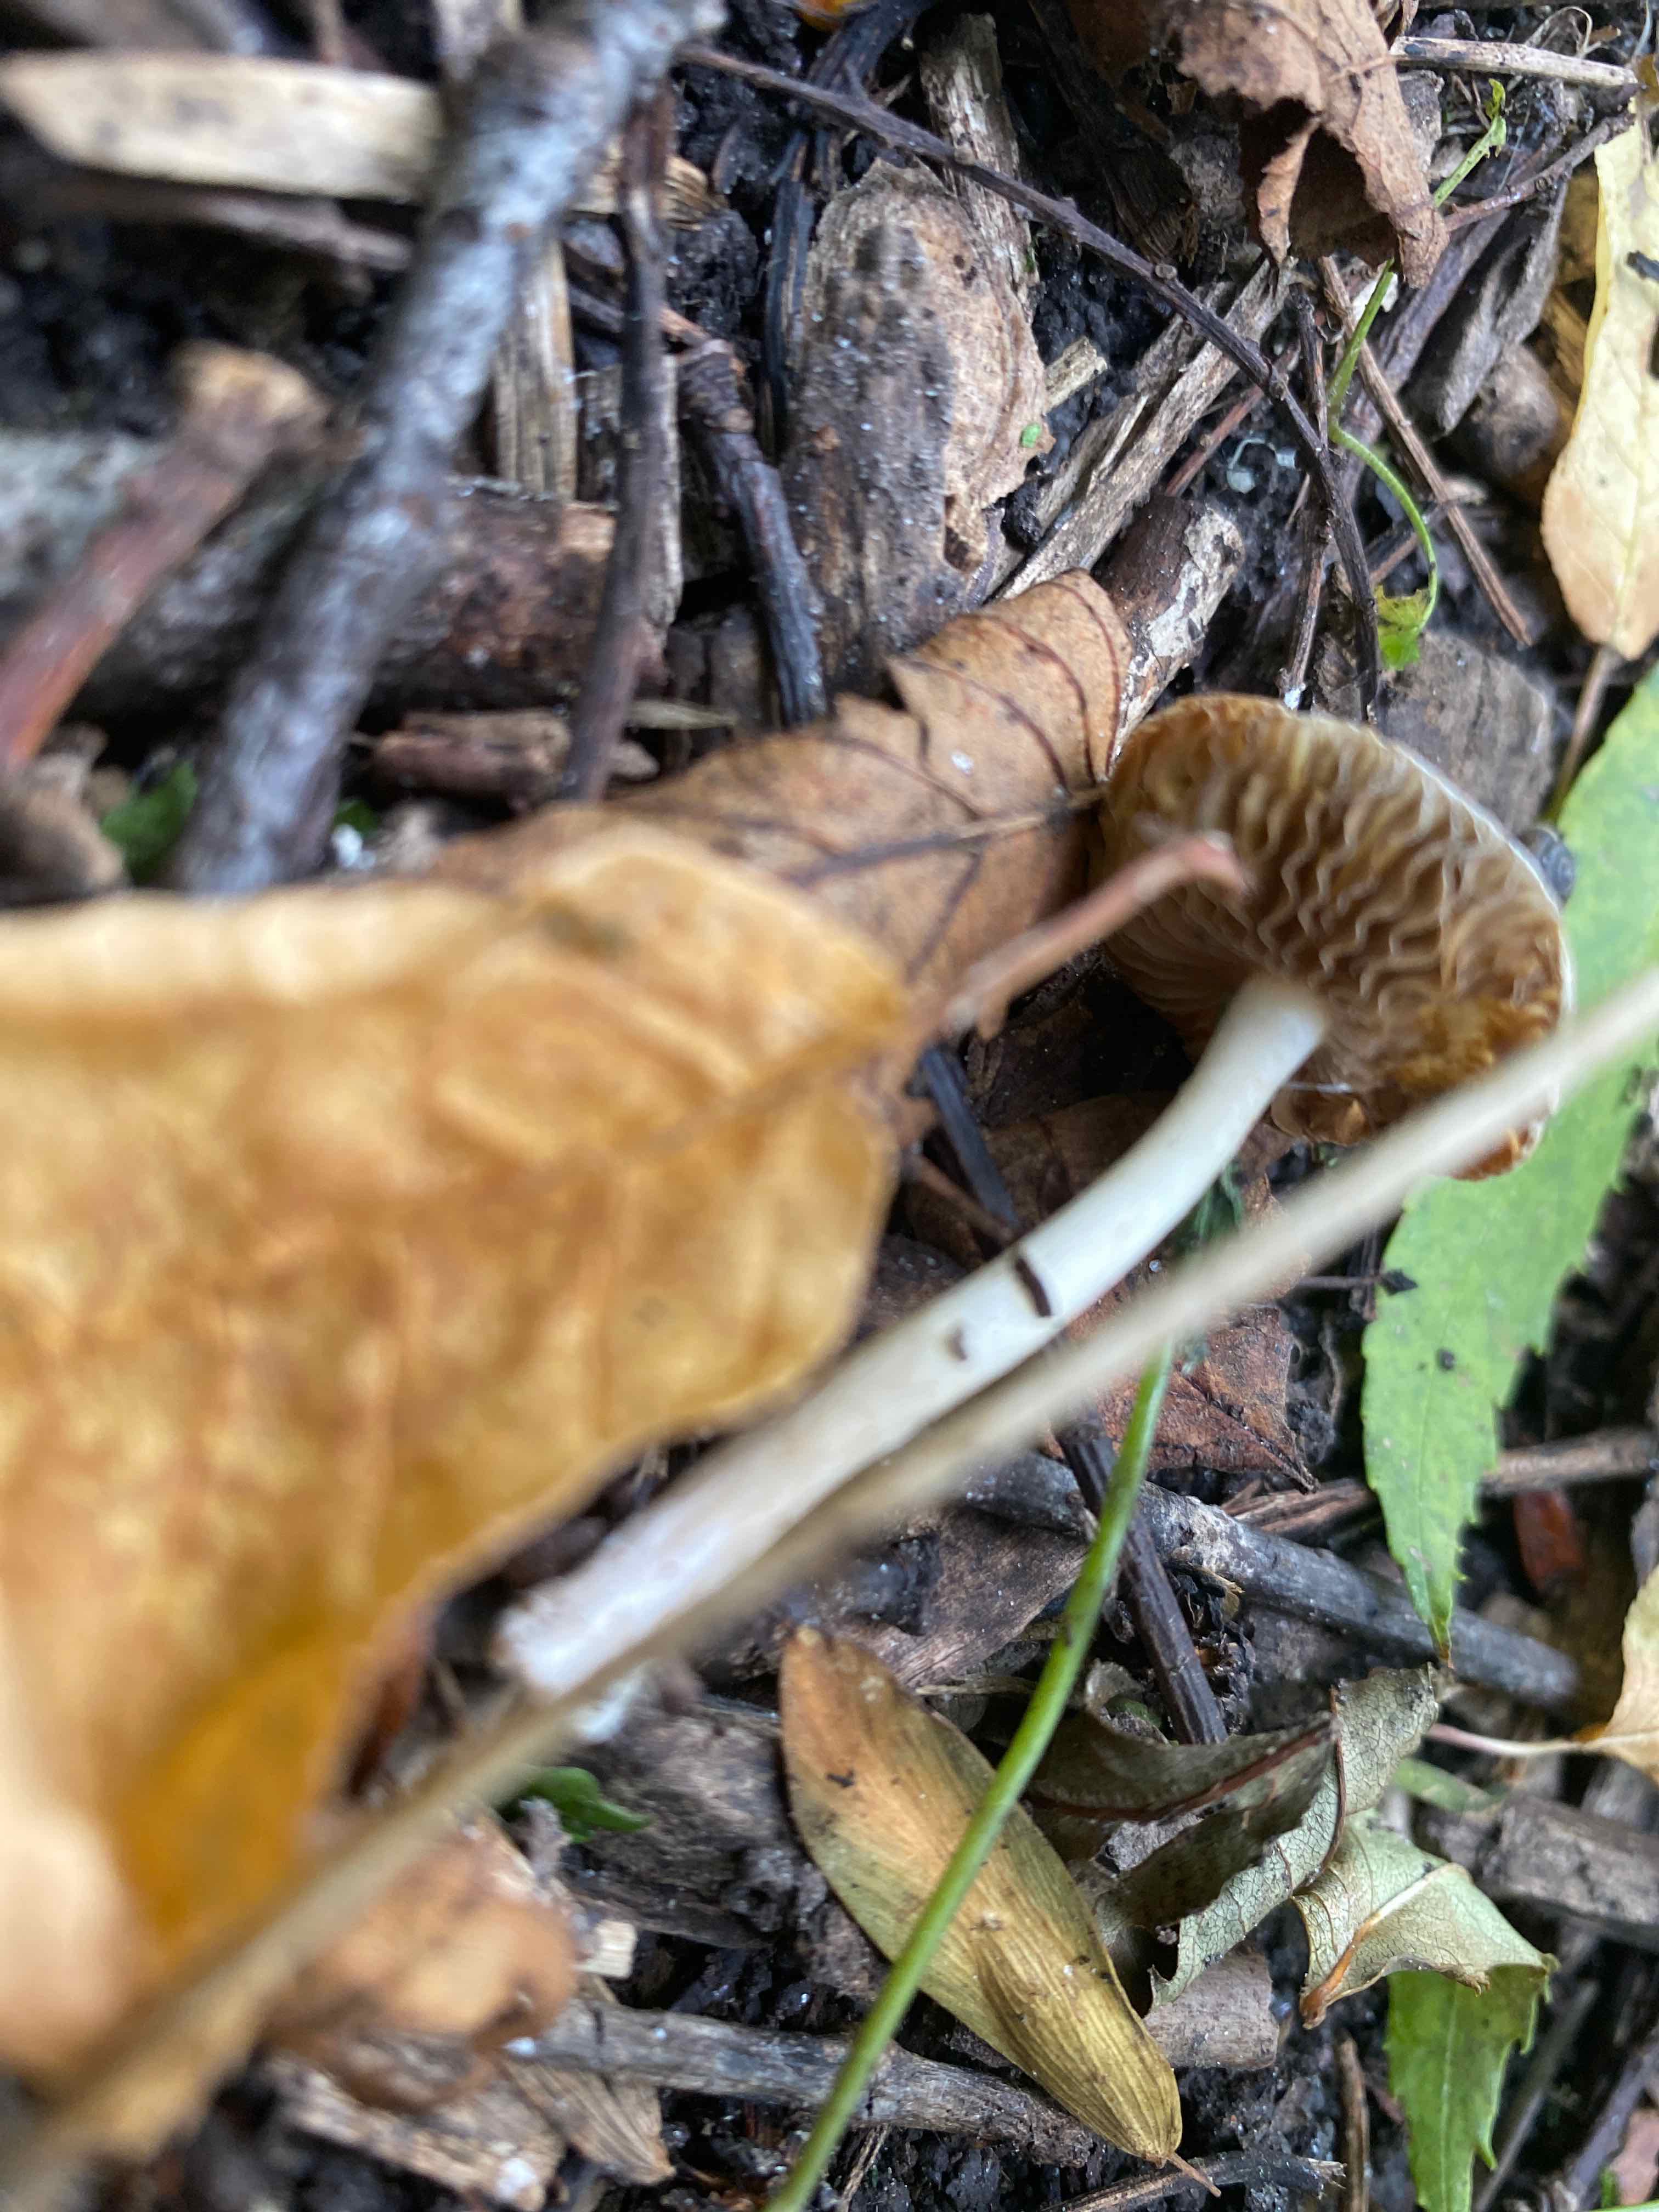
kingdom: Fungi
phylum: Basidiomycota
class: Agaricomycetes
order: Agaricales
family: Inocybaceae
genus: Inocybe
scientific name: Inocybe
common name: almindelig trævlhat
